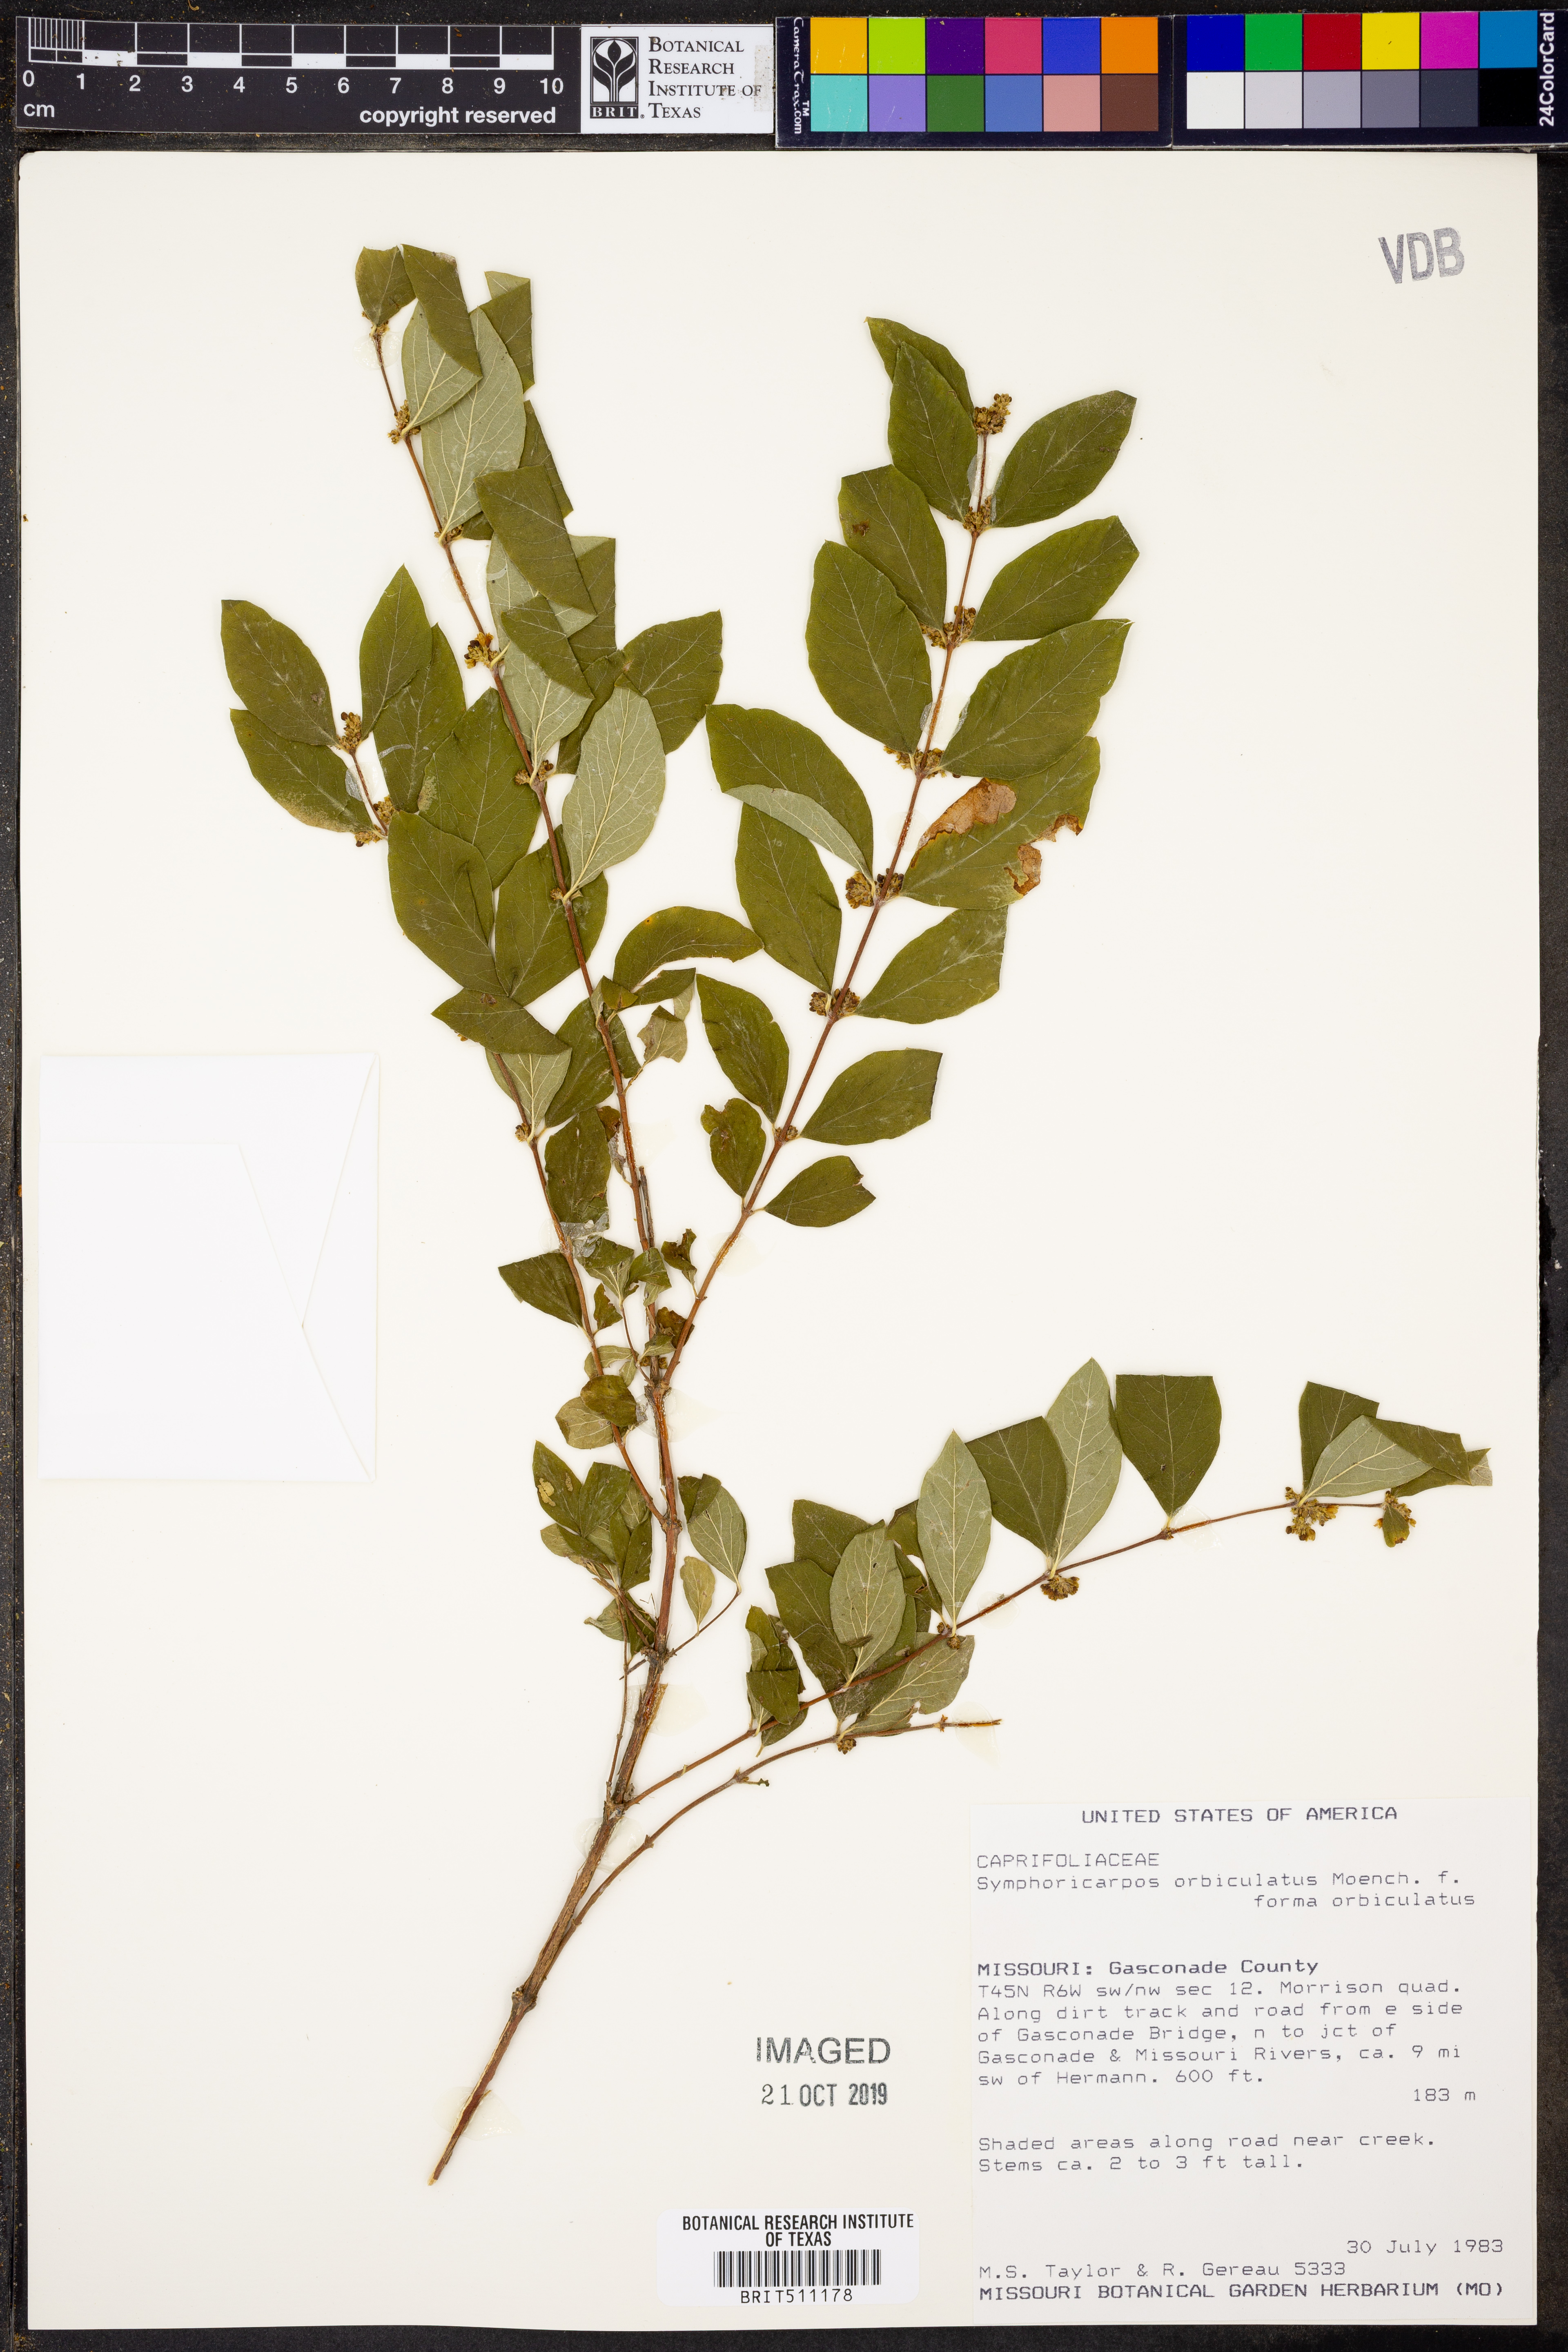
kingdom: Plantae
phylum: Tracheophyta
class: Magnoliopsida
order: Dipsacales
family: Caprifoliaceae
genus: Symphoricarpos
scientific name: Symphoricarpos orbiculatus
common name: Coralberry
